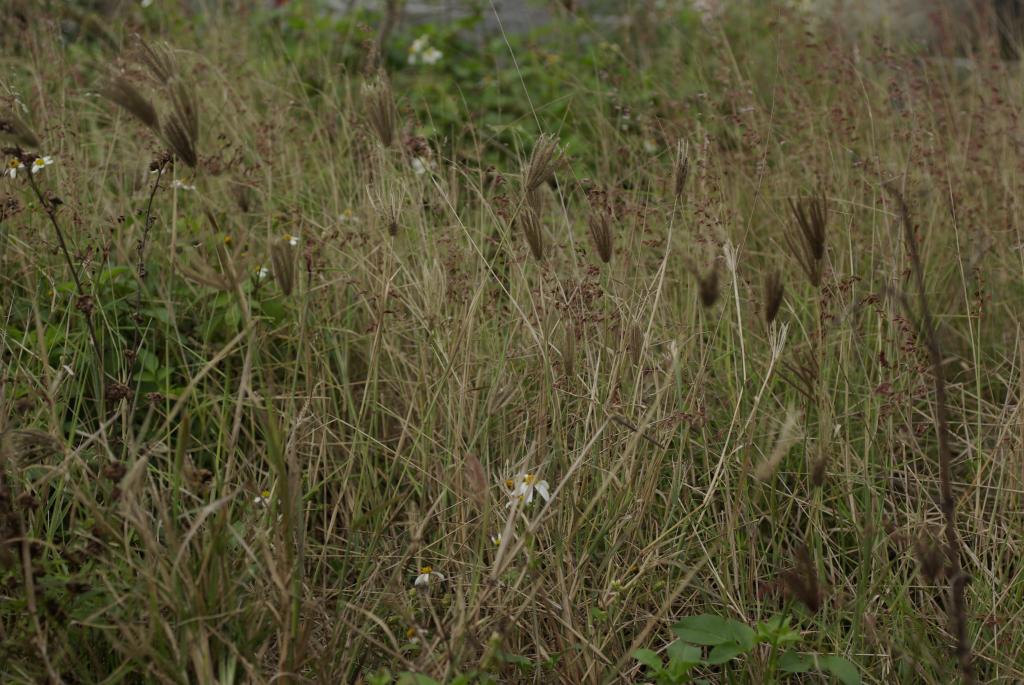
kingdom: Plantae
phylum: Tracheophyta
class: Liliopsida
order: Poales
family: Poaceae
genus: Chloris
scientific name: Chloris barbata
